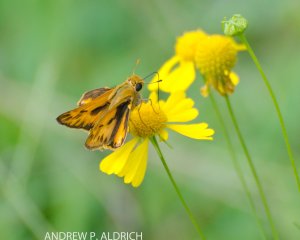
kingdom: Animalia
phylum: Arthropoda
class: Insecta
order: Lepidoptera
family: Hesperiidae
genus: Hylephila
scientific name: Hylephila phyleus
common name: Fiery Skipper
